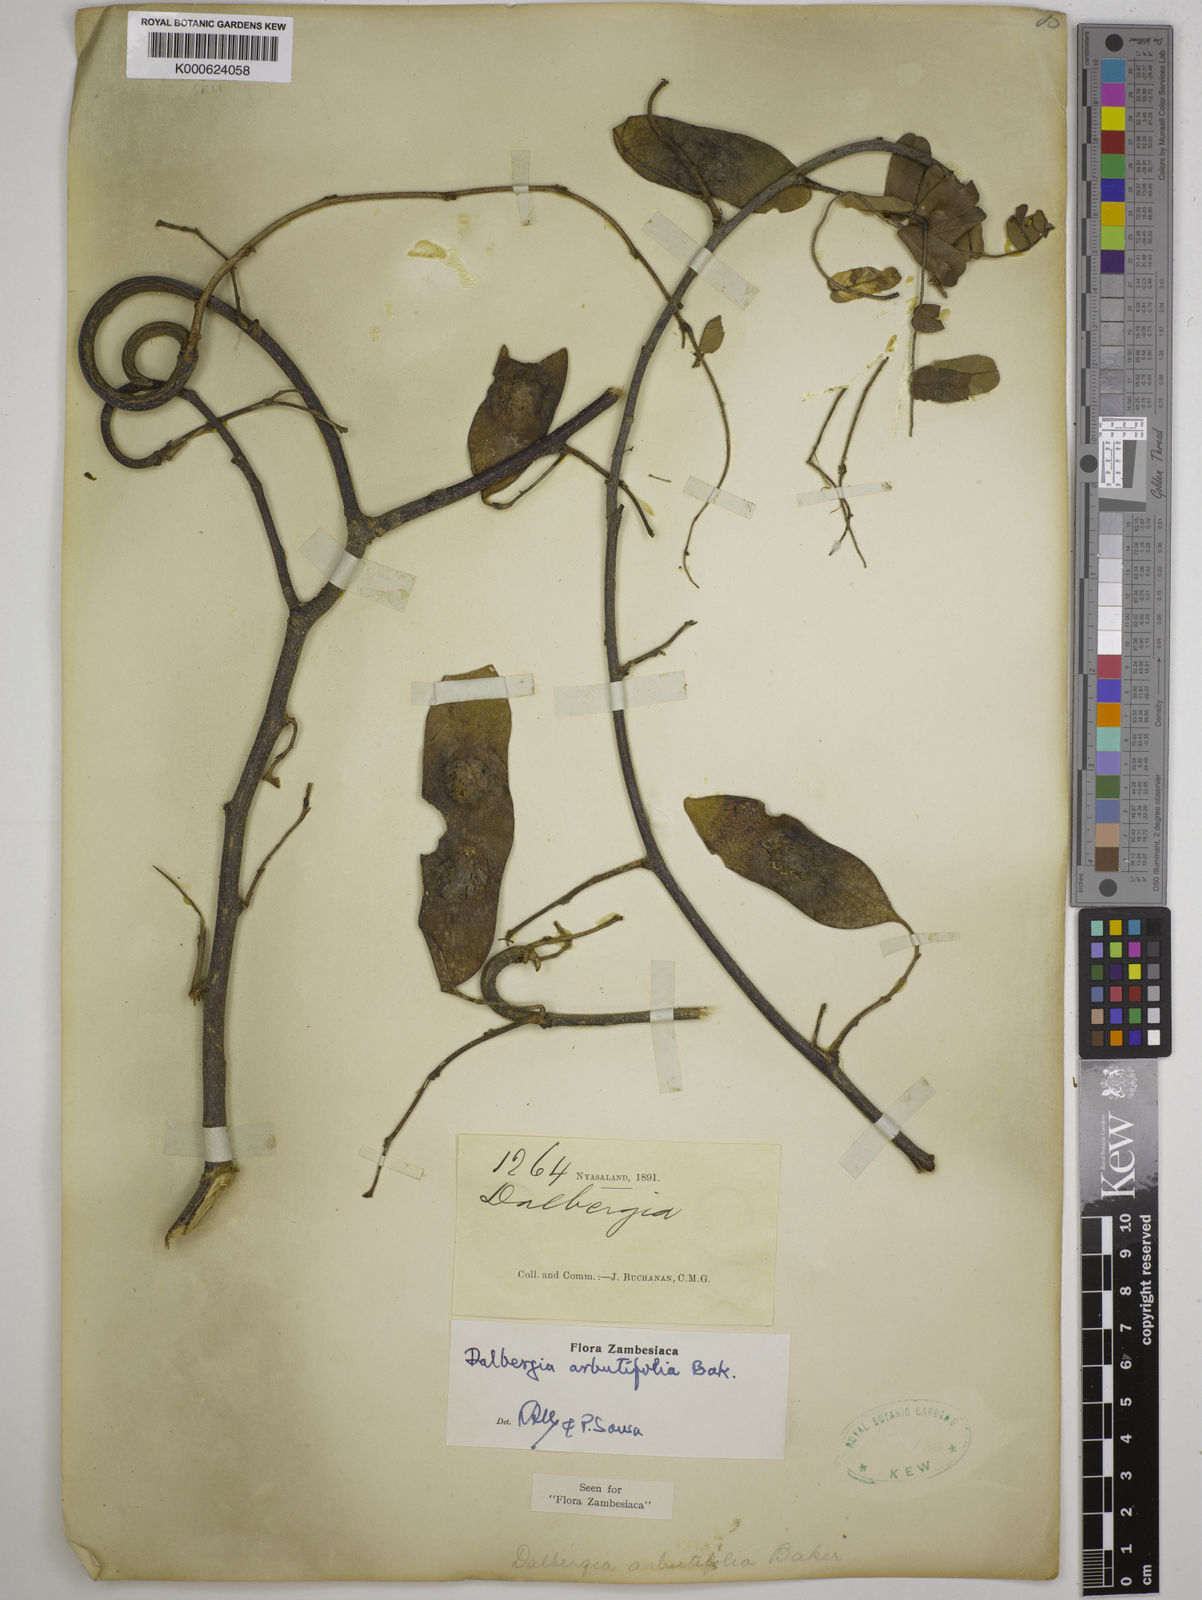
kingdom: Plantae
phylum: Tracheophyta
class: Magnoliopsida
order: Fabales
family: Fabaceae
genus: Dalbergia
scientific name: Dalbergia arbutifolia
